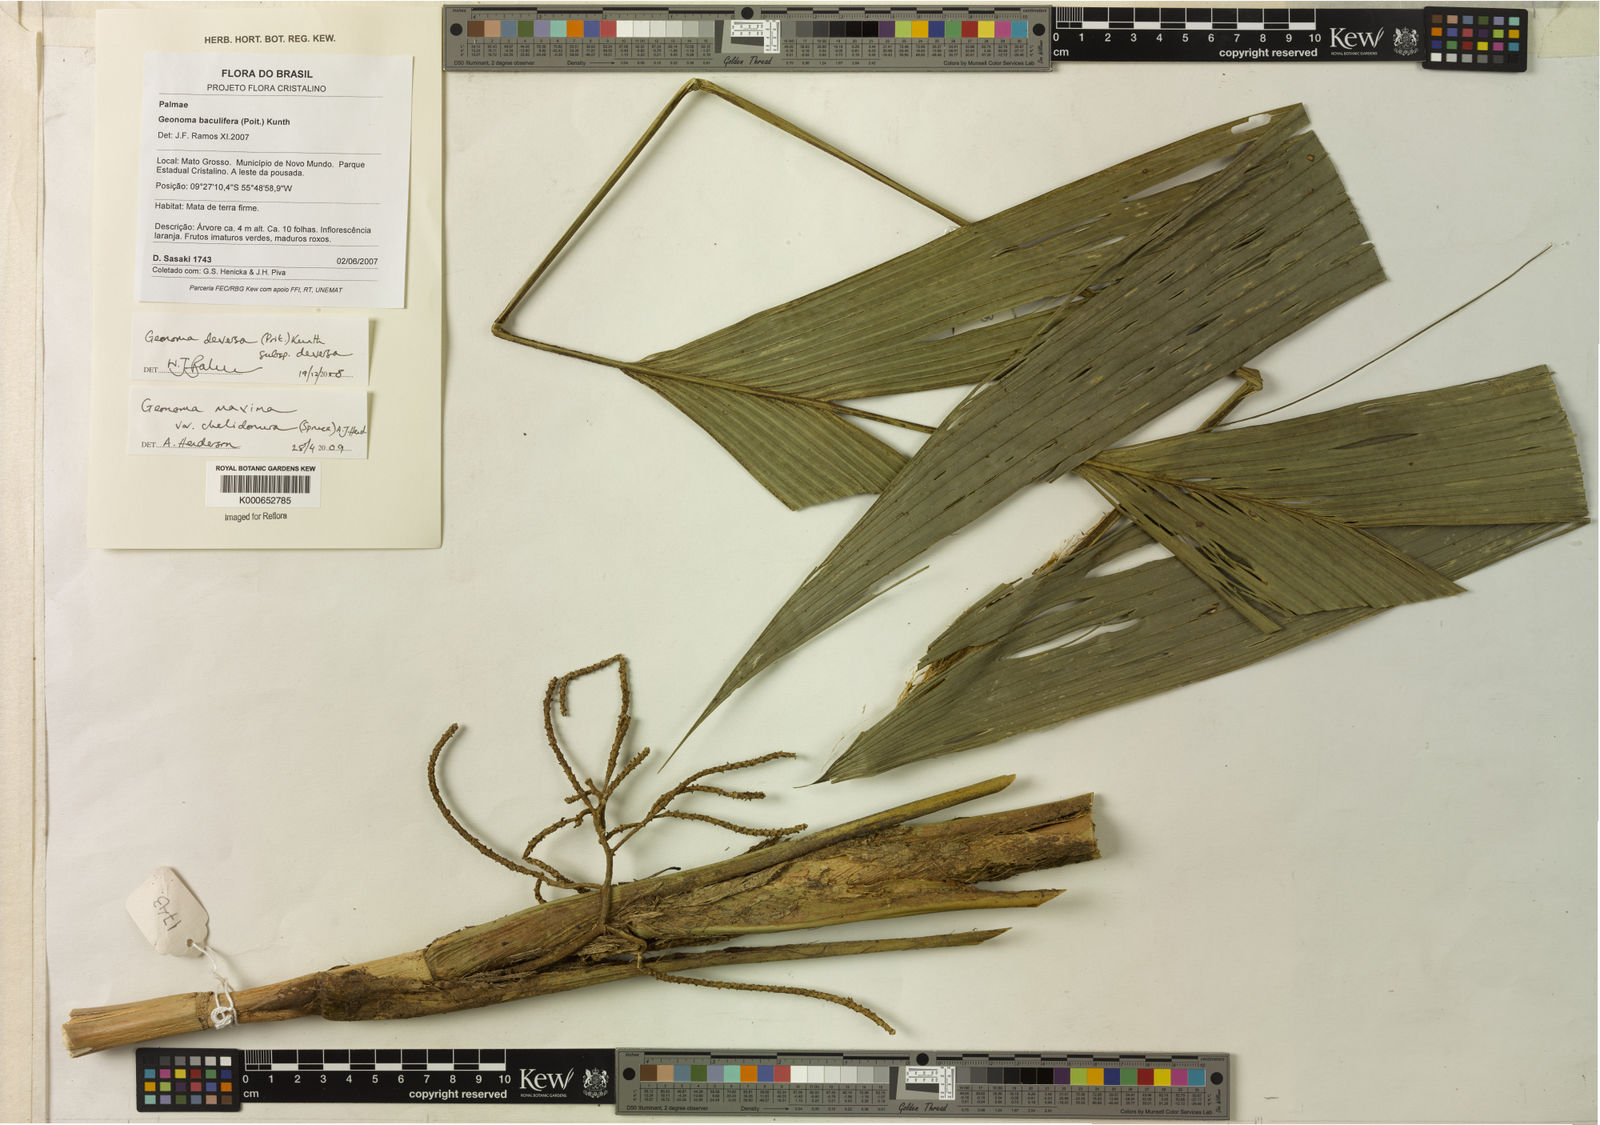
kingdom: Plantae
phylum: Tracheophyta
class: Liliopsida
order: Arecales
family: Arecaceae
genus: Geonoma
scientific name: Geonoma
